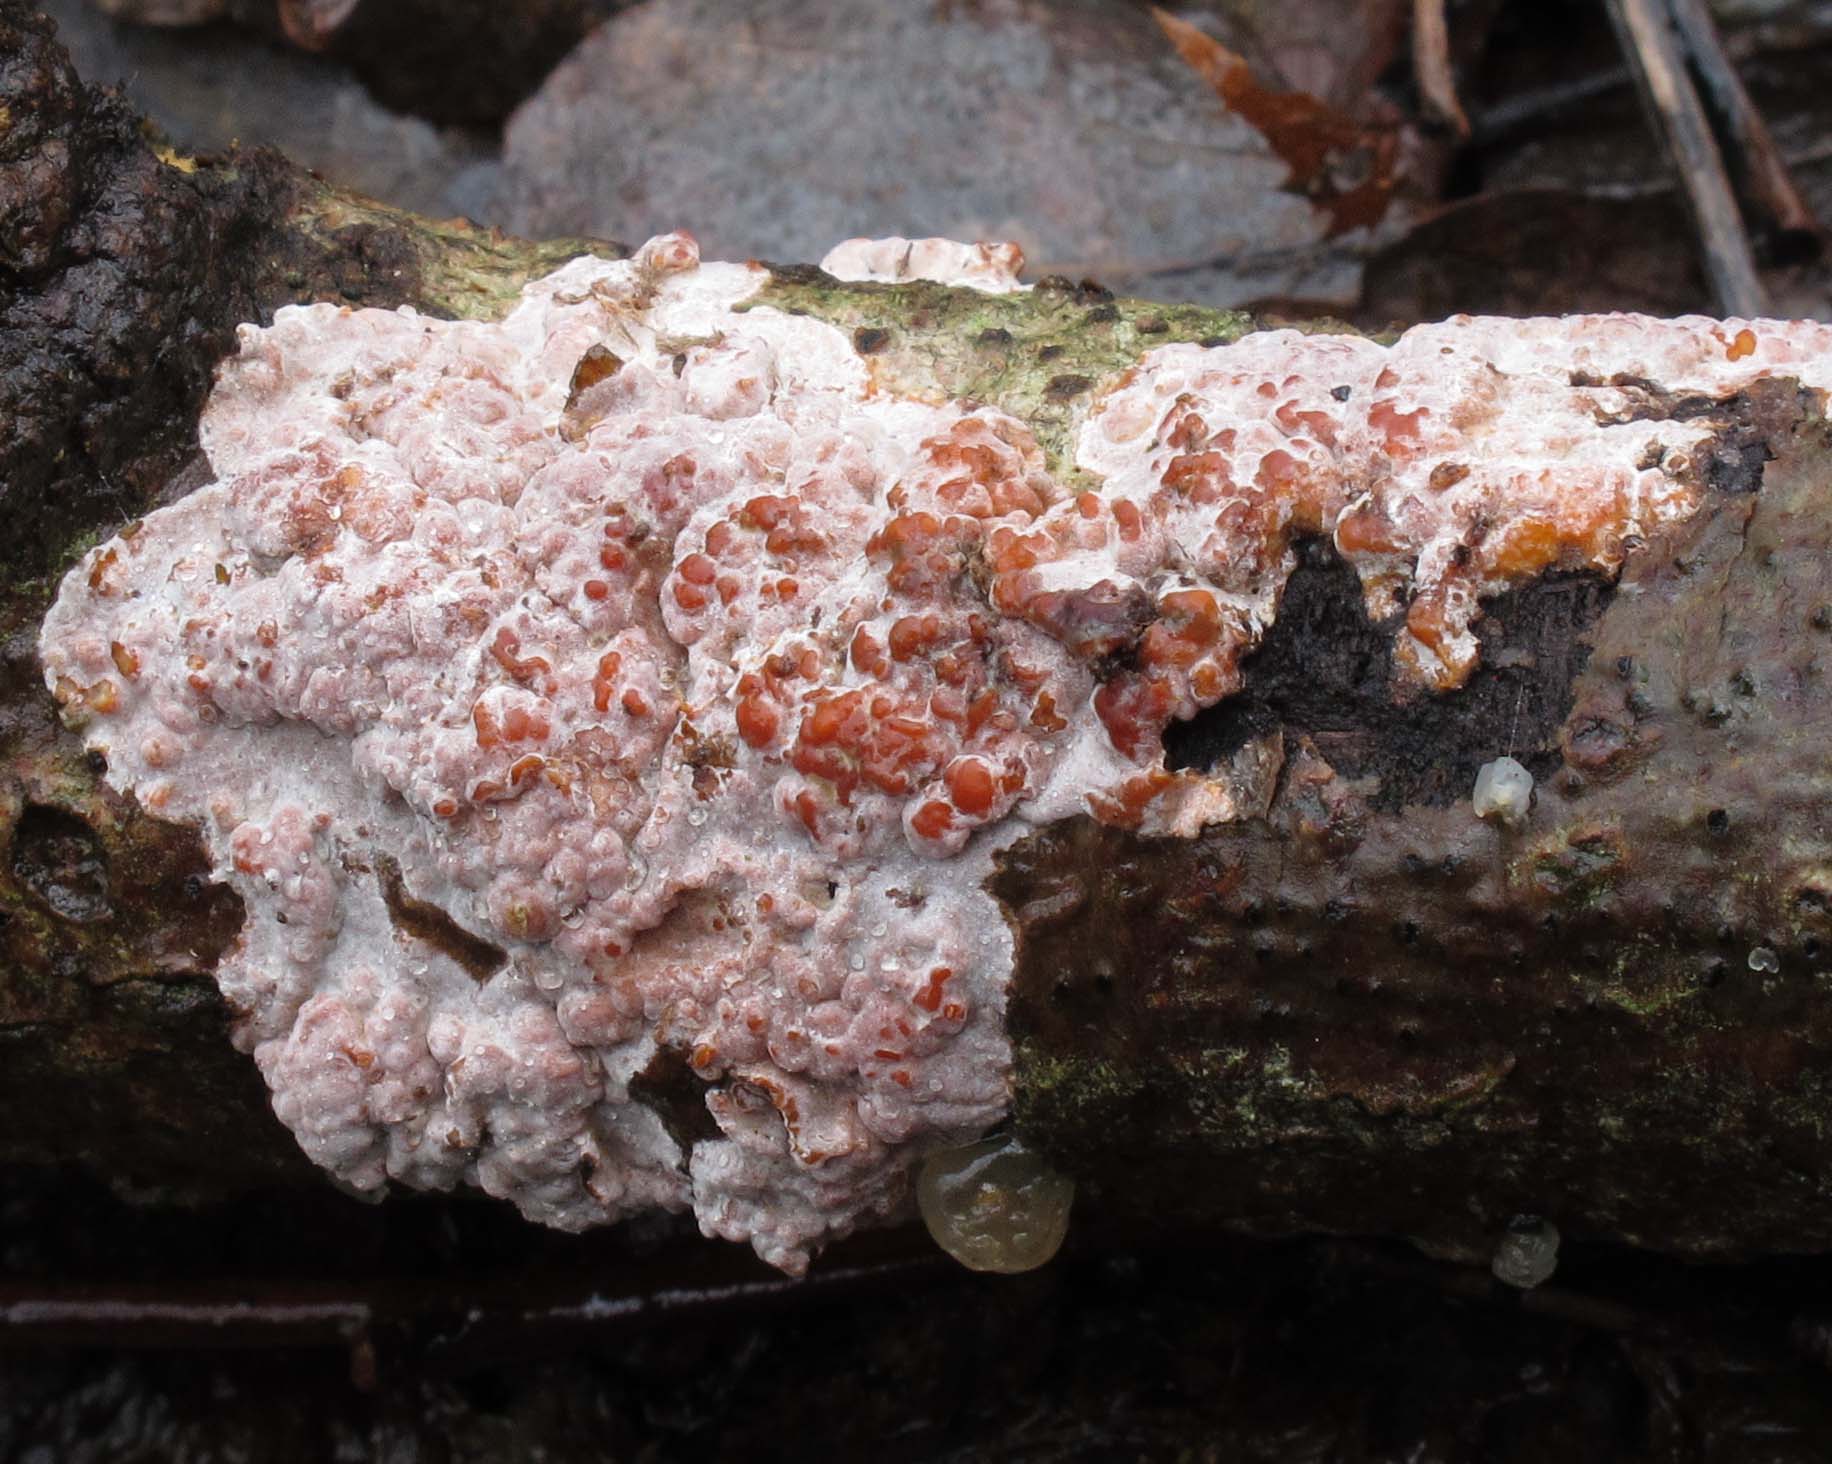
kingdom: Fungi
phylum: Basidiomycota
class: Agaricomycetes
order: Russulales
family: Peniophoraceae
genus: Peniophora
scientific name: Peniophora polygonia
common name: polygon-voksskind
